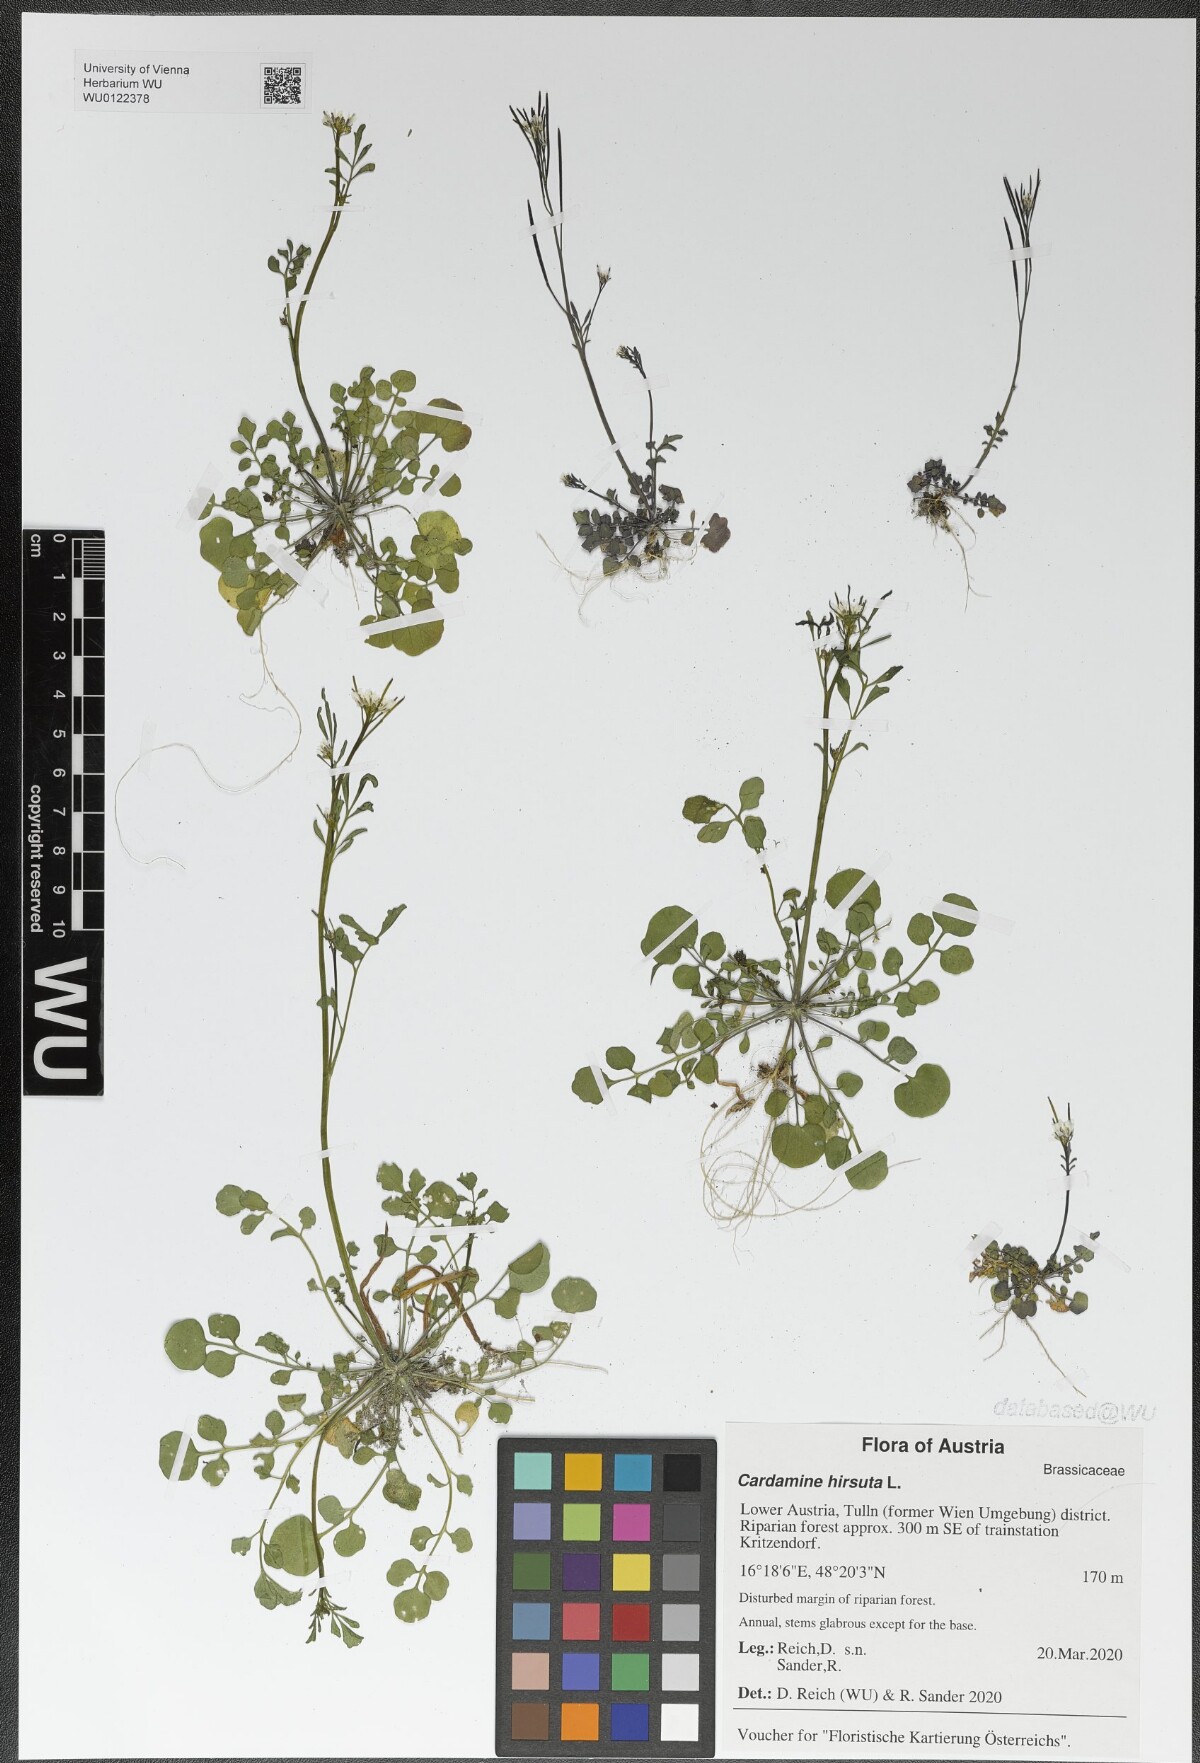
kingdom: Plantae
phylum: Tracheophyta
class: Magnoliopsida
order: Brassicales
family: Brassicaceae
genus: Cardamine
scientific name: Cardamine hirsuta
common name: Hairy bittercress
